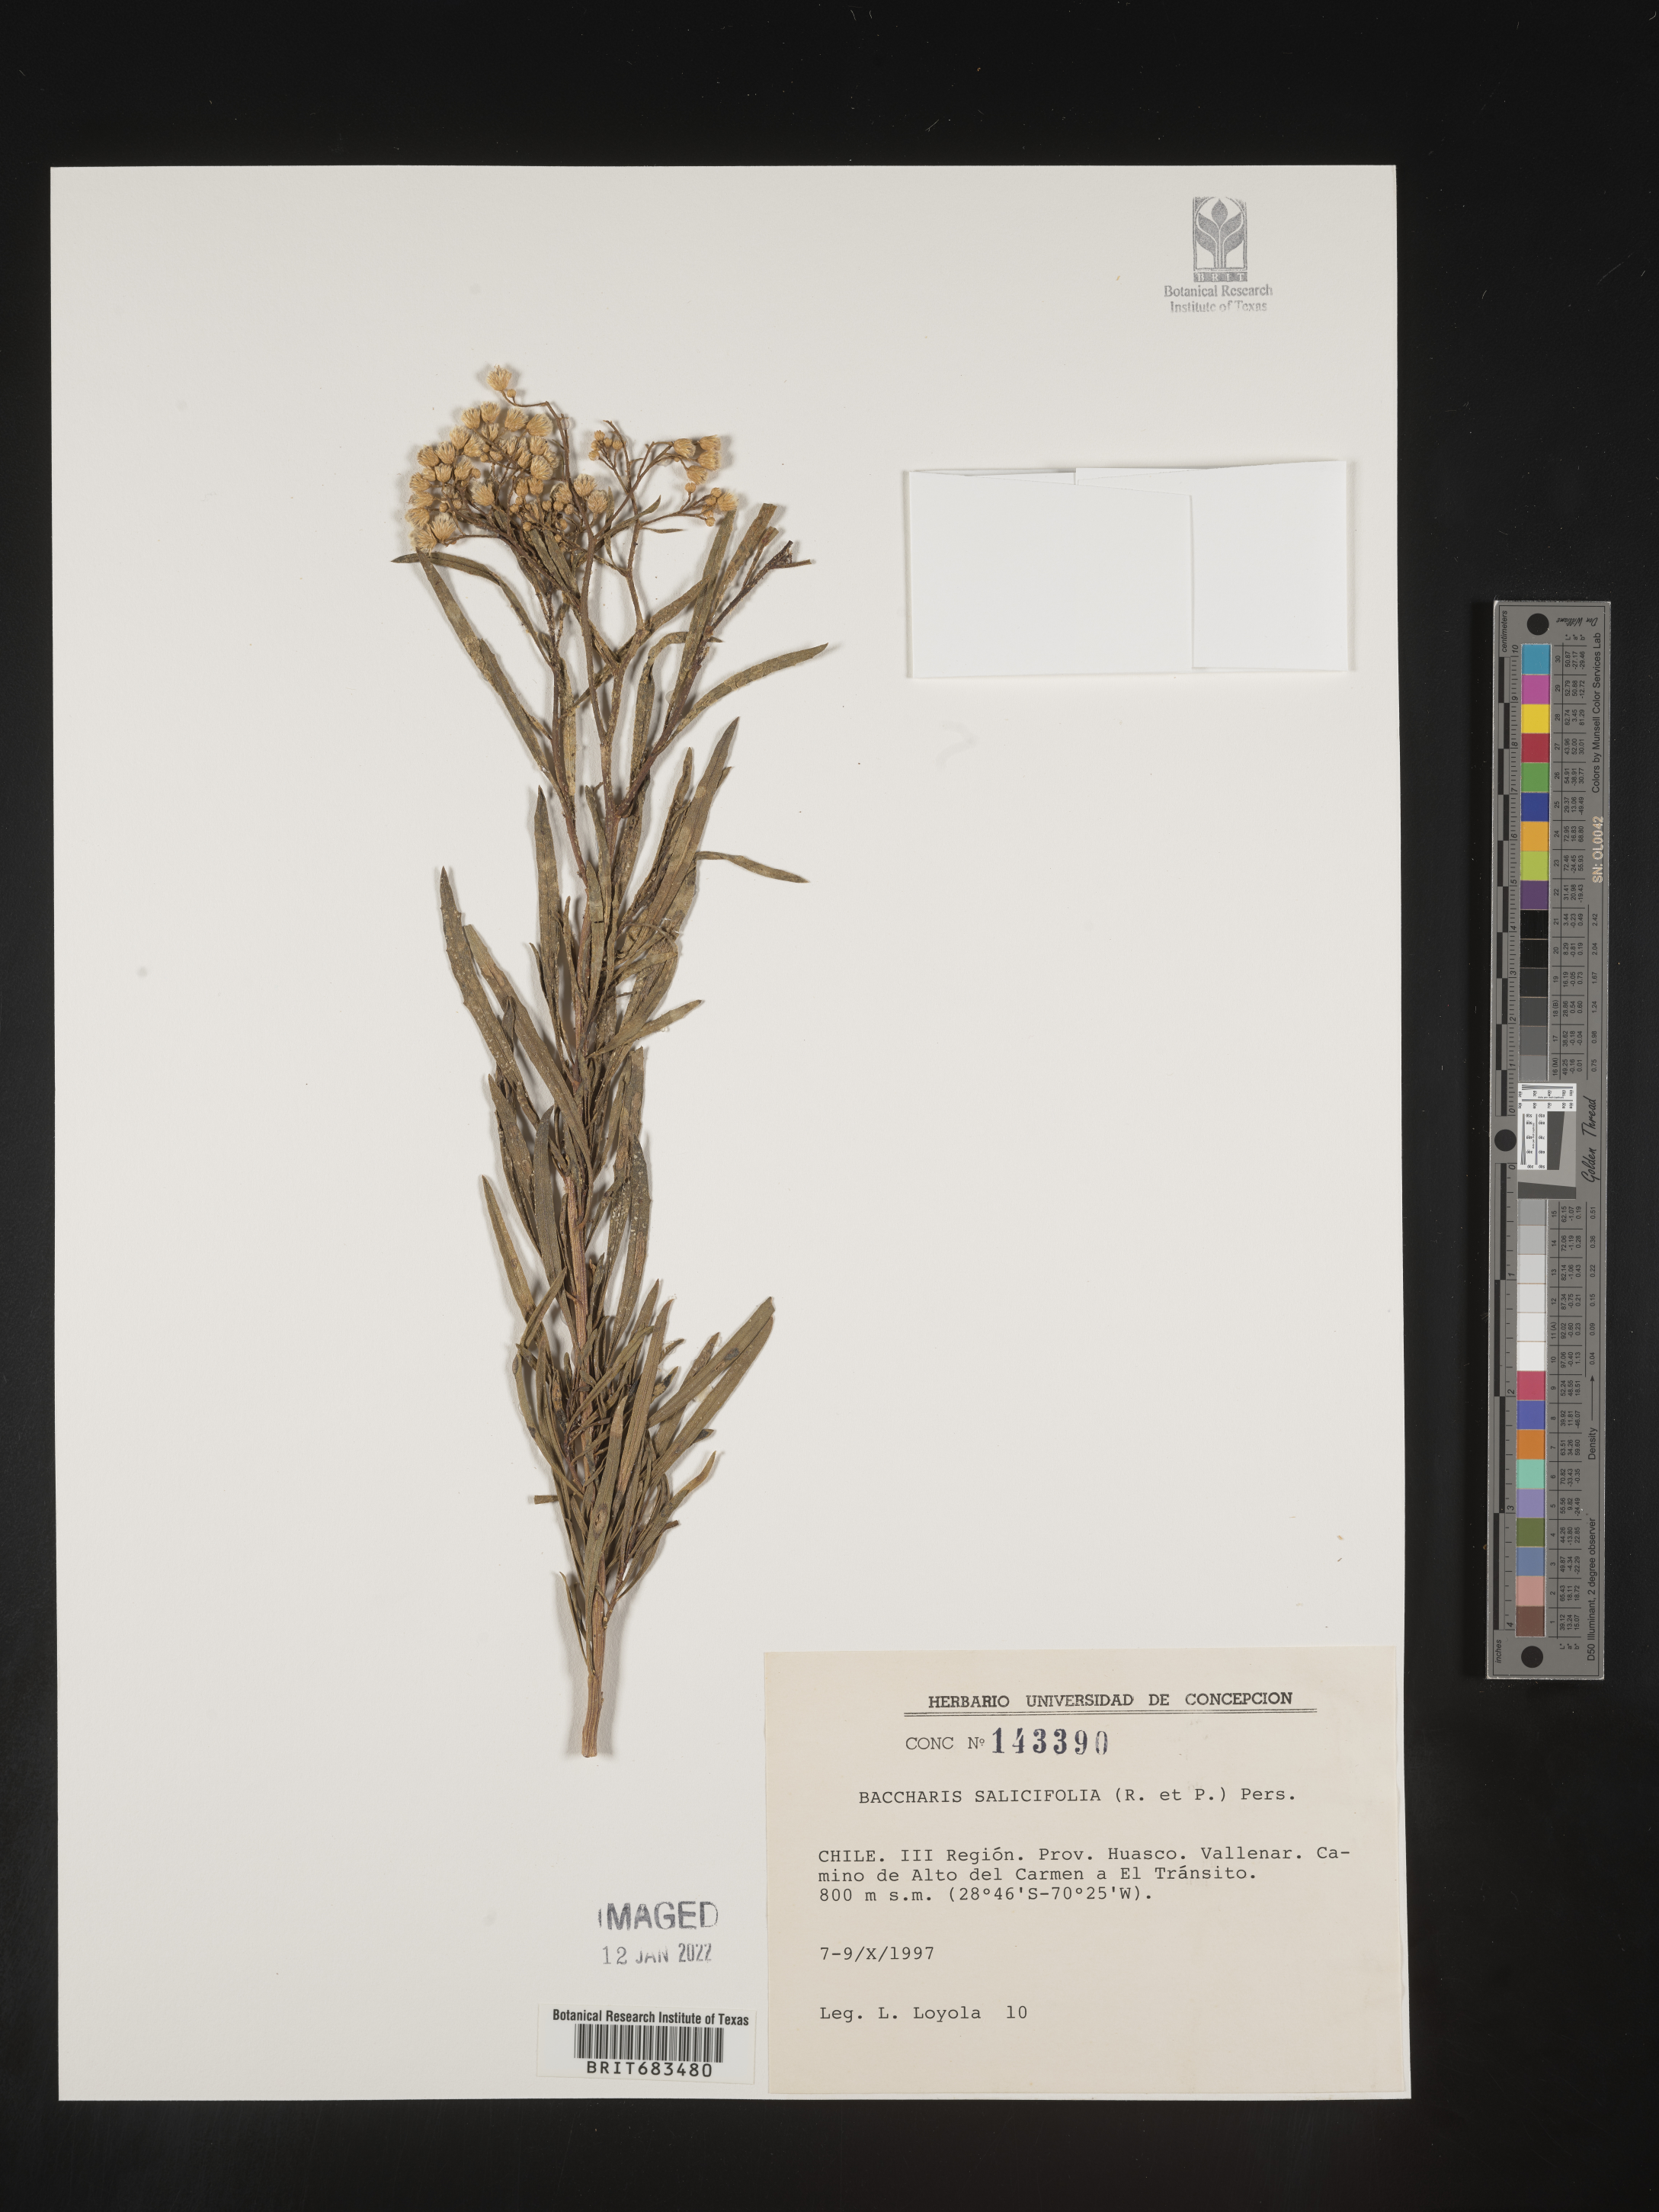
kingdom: Plantae
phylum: Tracheophyta
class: Magnoliopsida
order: Asterales
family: Asteraceae
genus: Baccharis
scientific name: Baccharis
